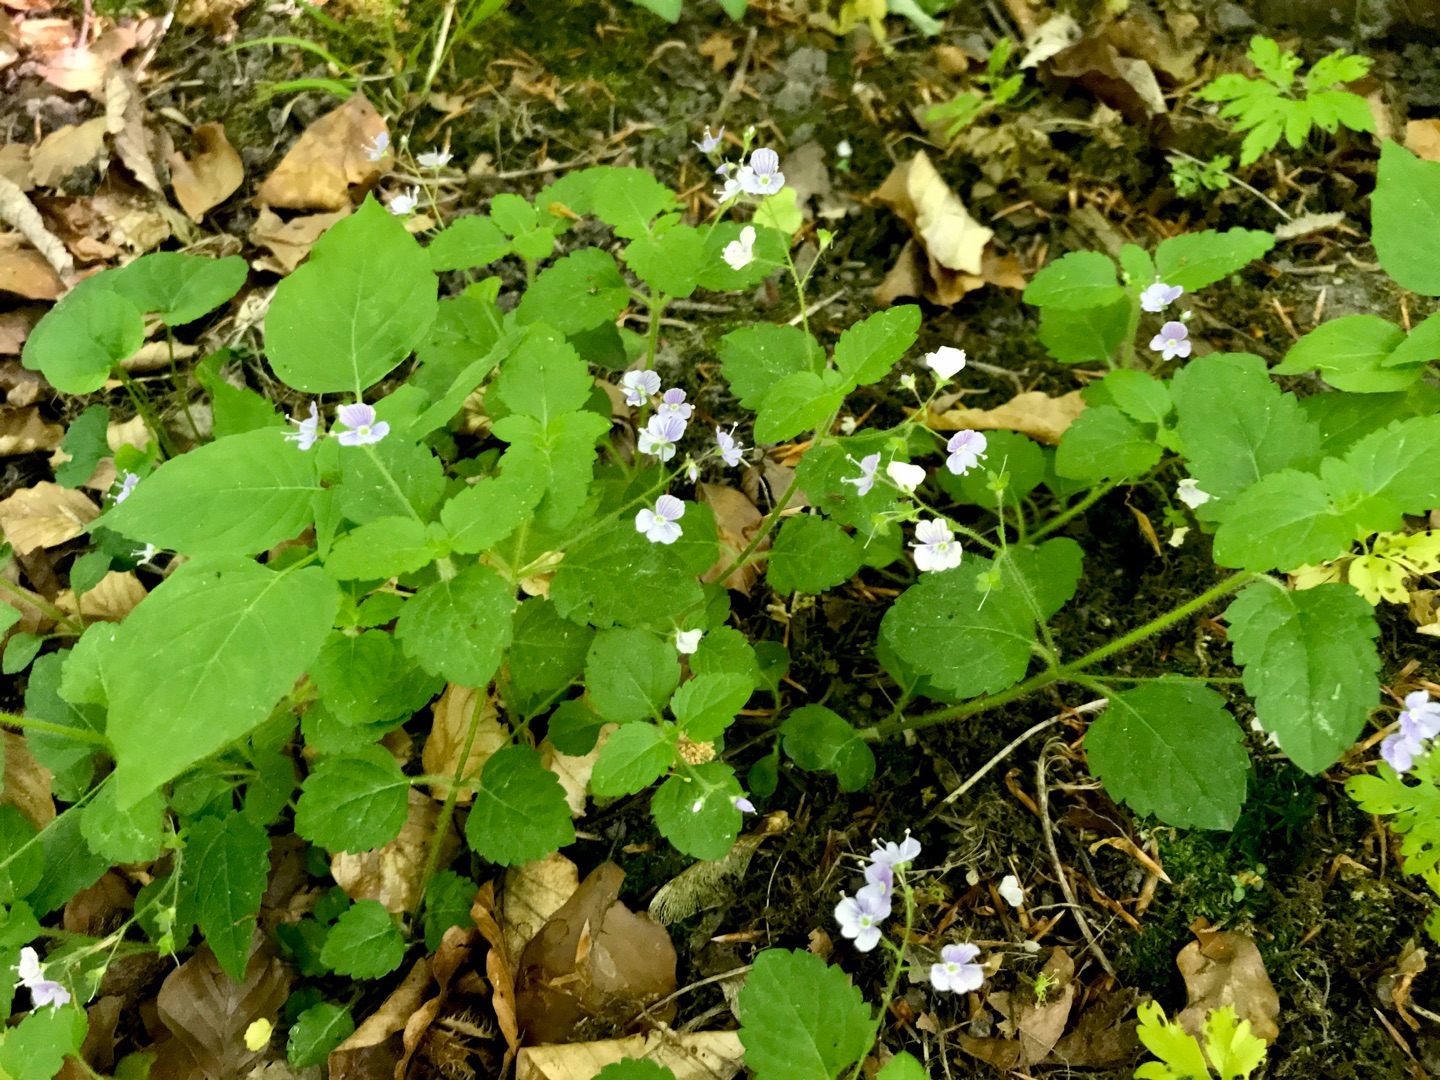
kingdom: Plantae
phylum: Tracheophyta
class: Magnoliopsida
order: Lamiales
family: Plantaginaceae
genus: Veronica
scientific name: Veronica montana
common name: Bjerg-ærenpris
